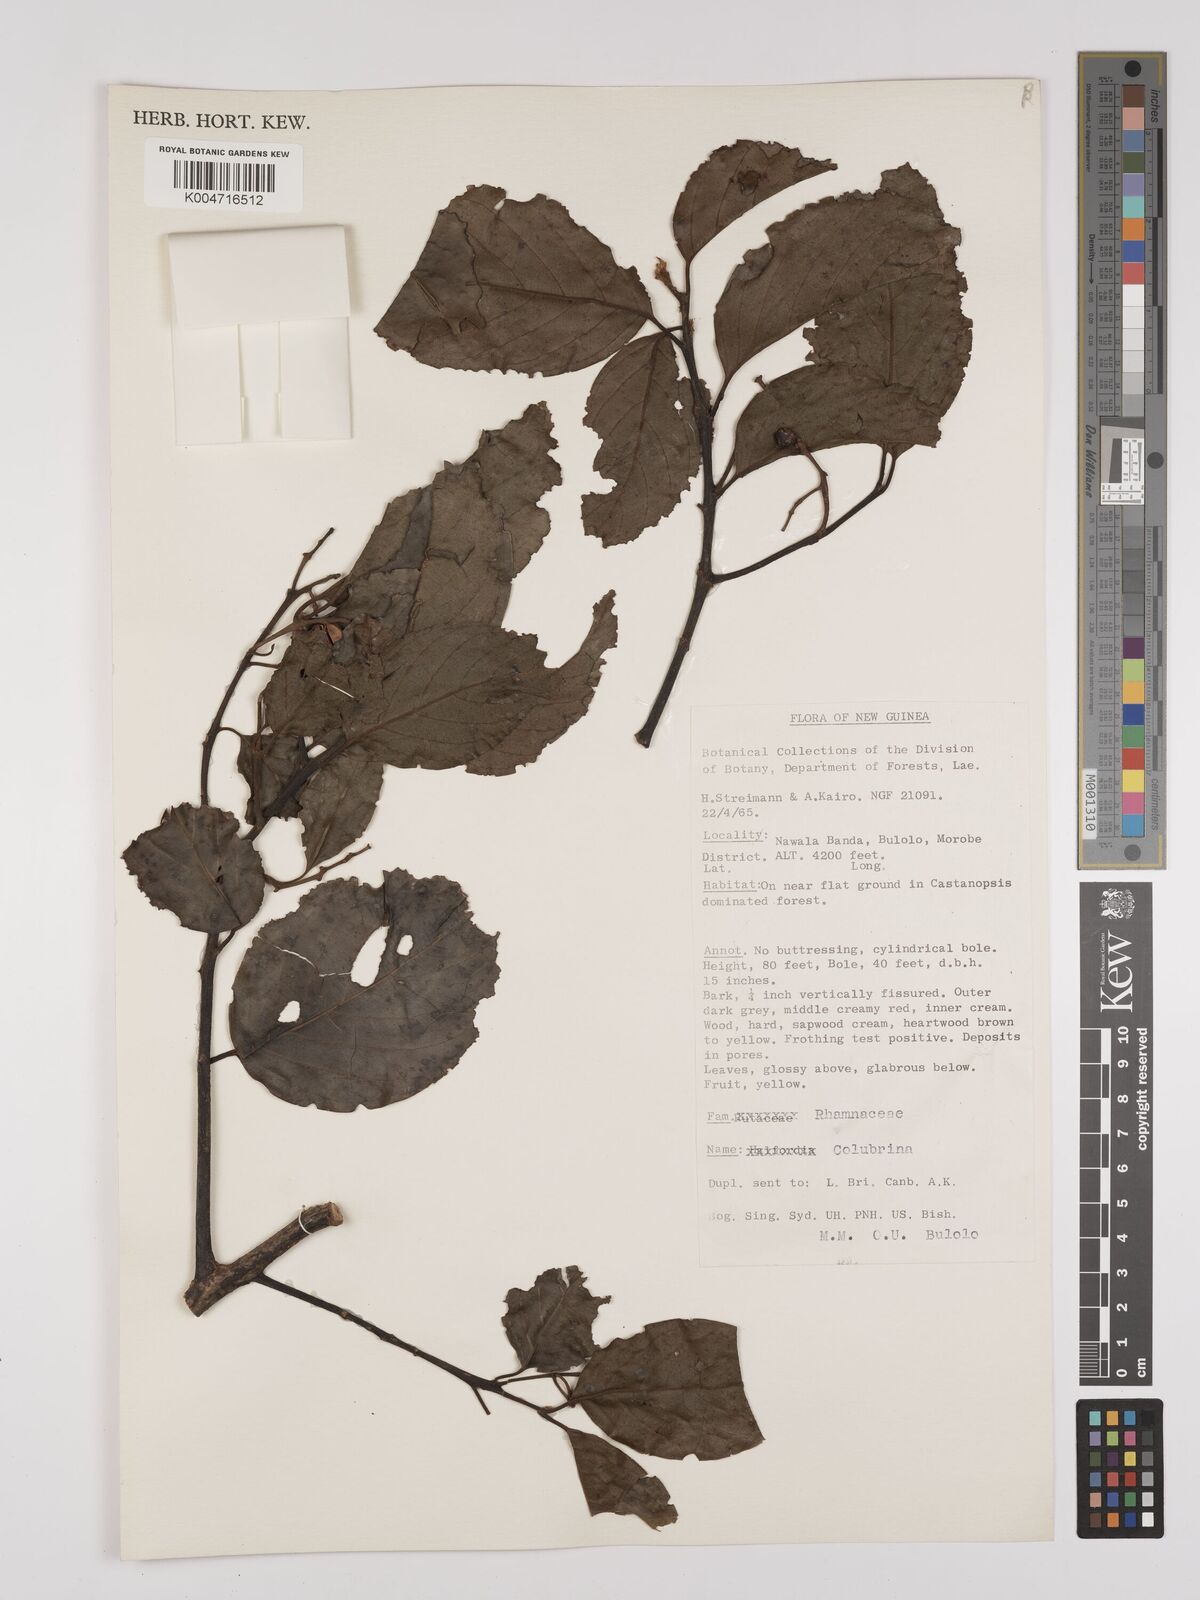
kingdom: Plantae
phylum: Tracheophyta
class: Magnoliopsida
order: Rosales
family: Rhamnaceae
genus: Colubrina
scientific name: Colubrina
